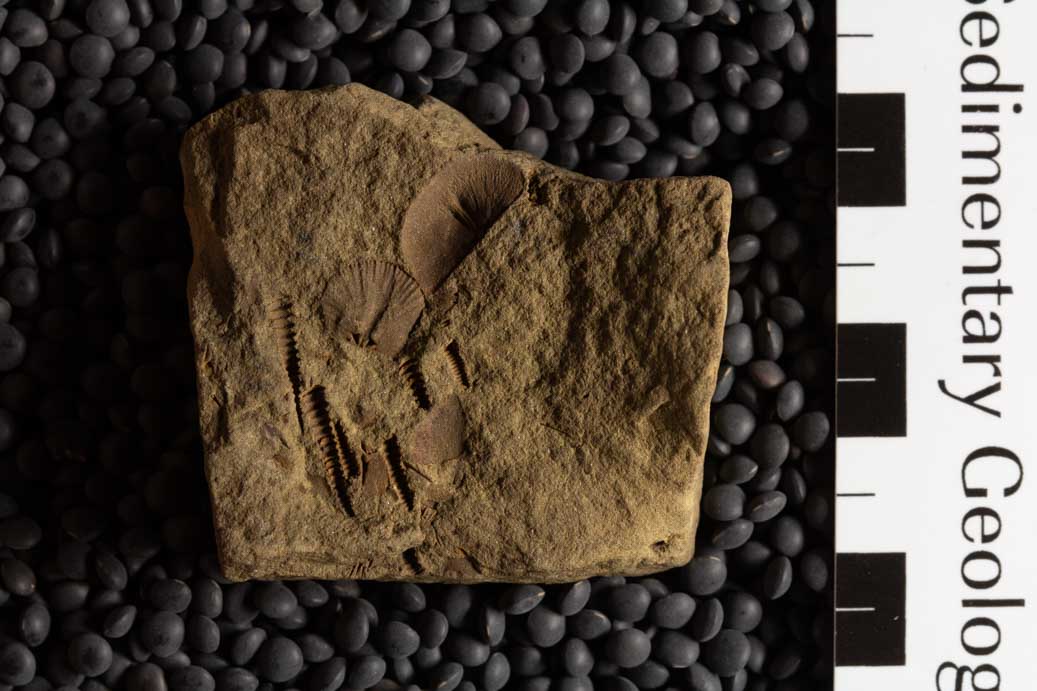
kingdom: Animalia
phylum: Brachiopoda
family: Sowerbyellidae
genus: Sowerbyella
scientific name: Sowerbyella Leptaena sericea
